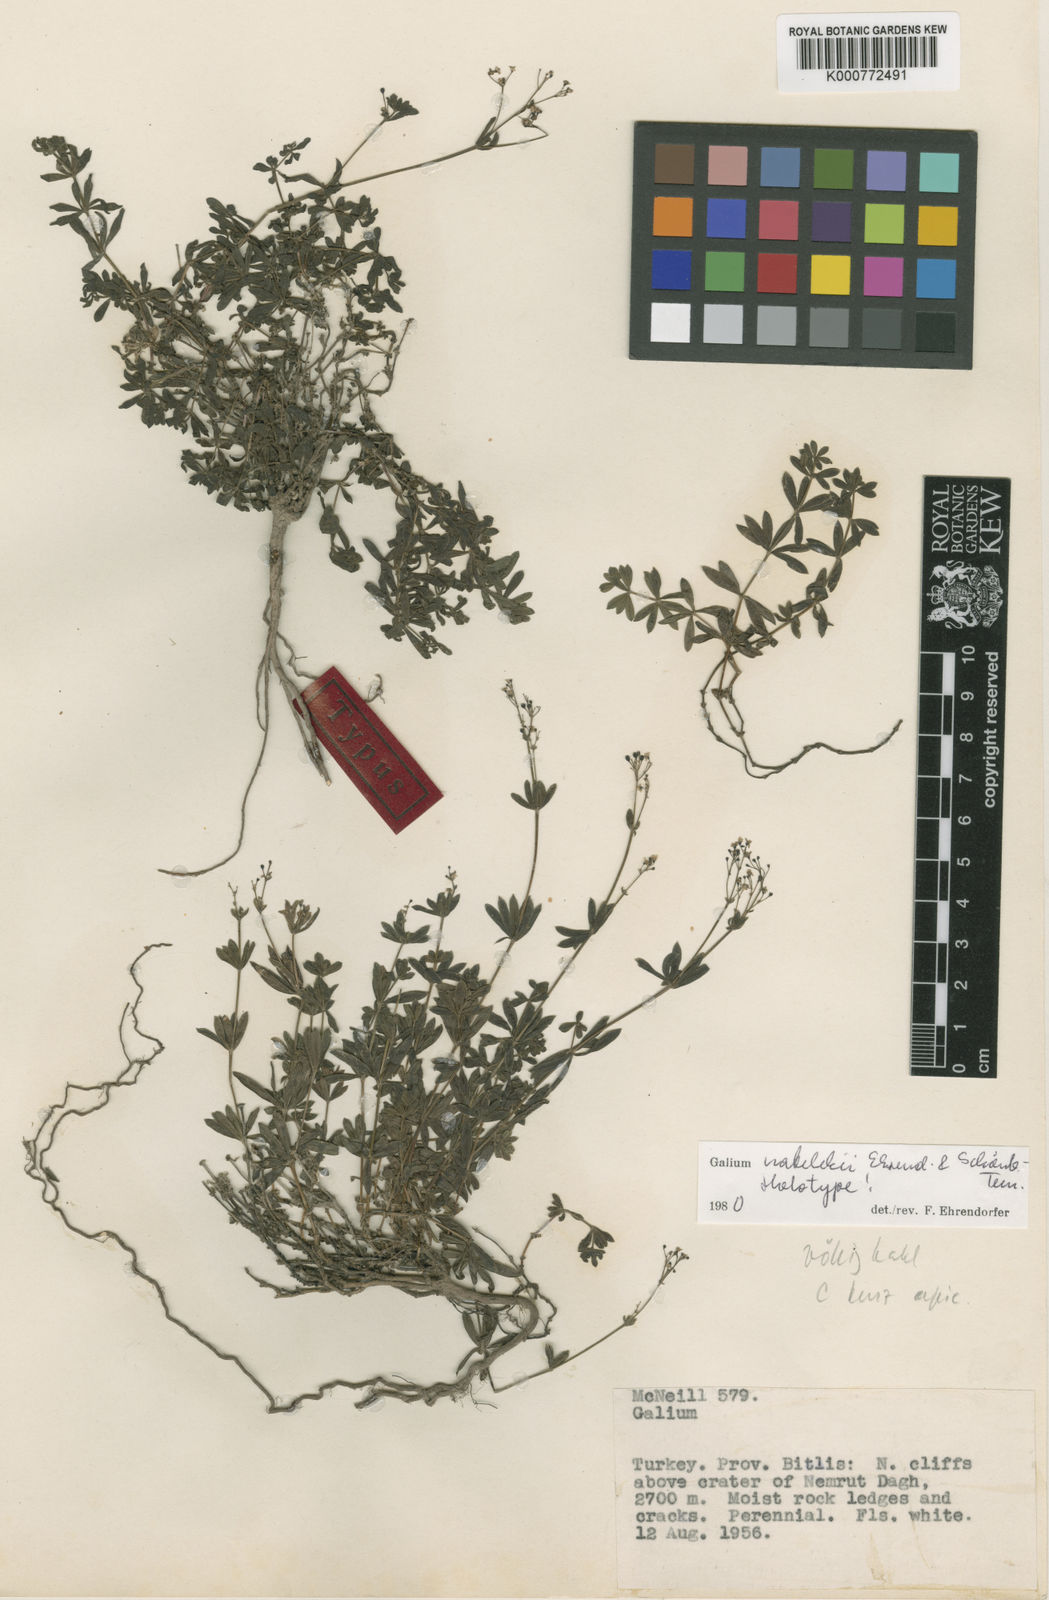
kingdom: Plantae
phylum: Tracheophyta
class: Magnoliopsida
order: Gentianales
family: Rubiaceae
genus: Galium
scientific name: Galium
